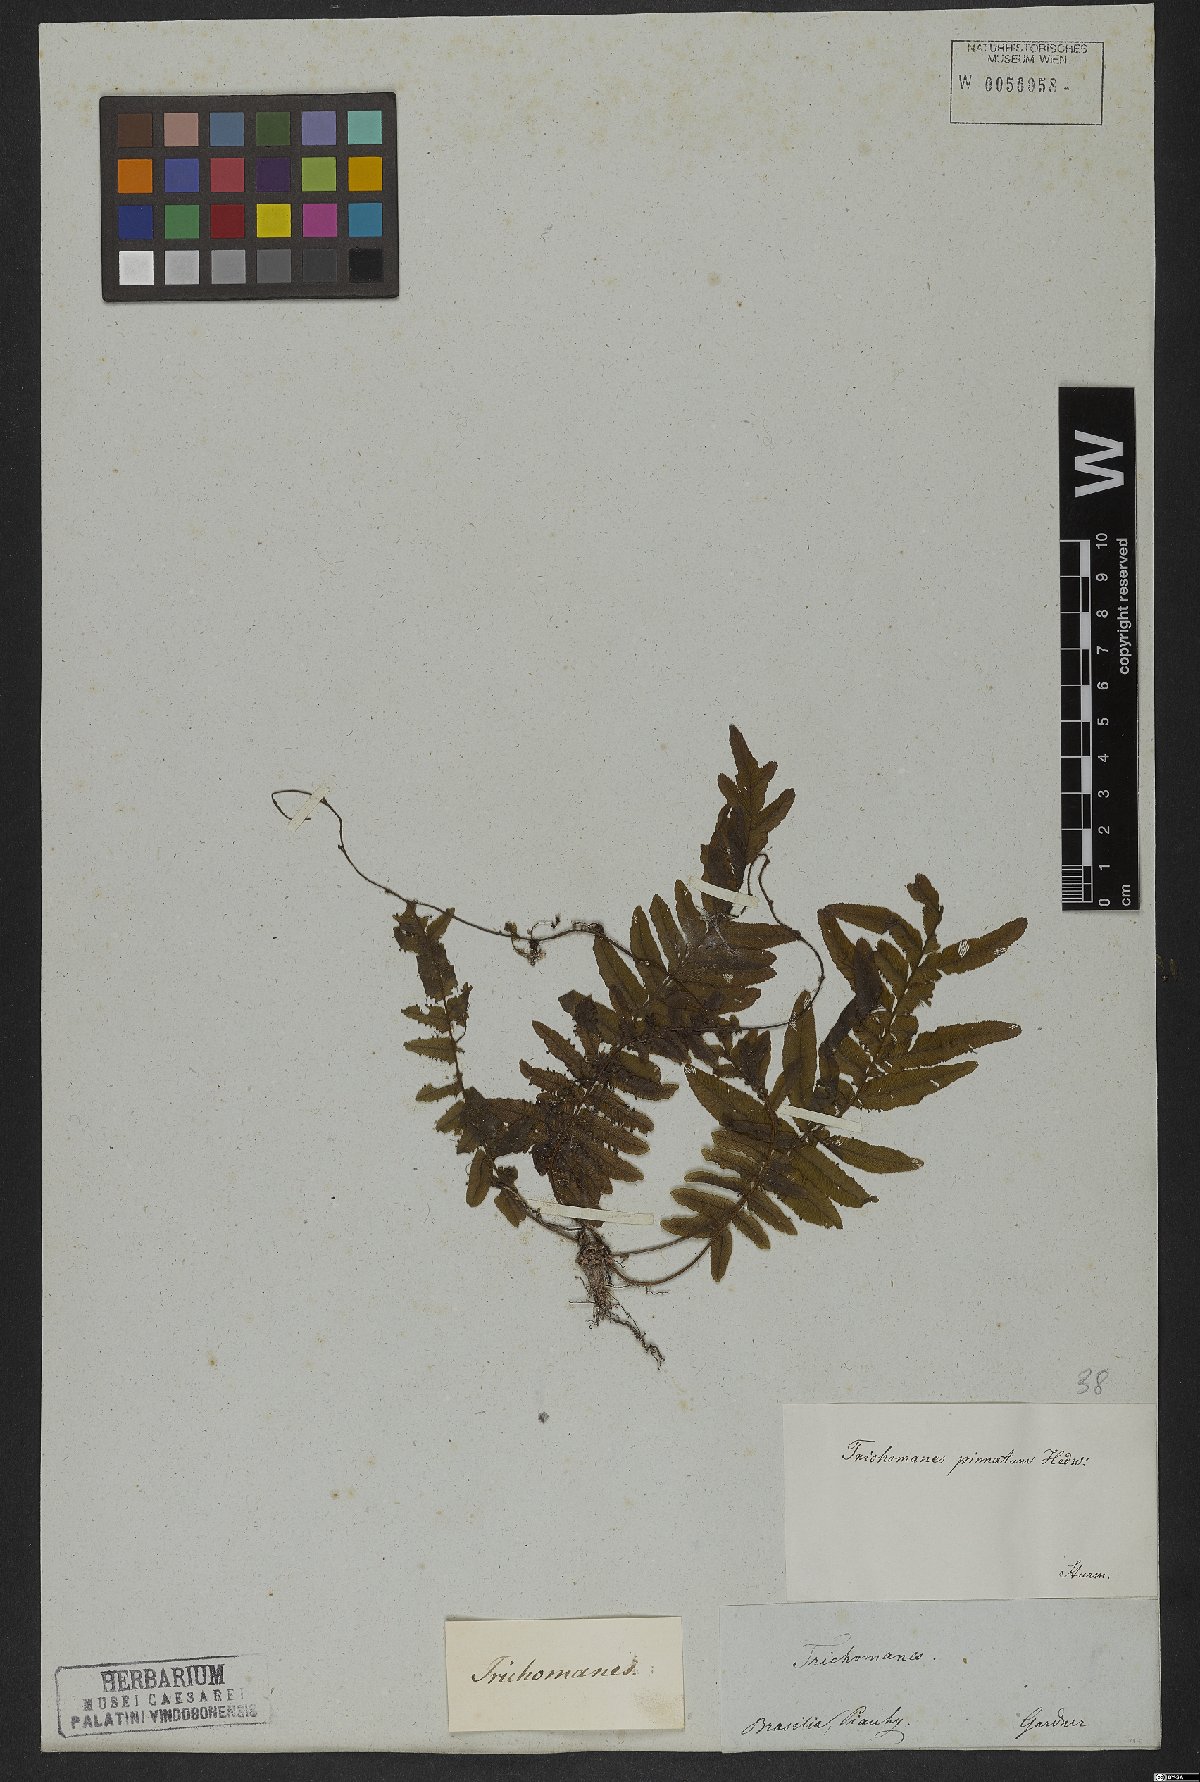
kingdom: Plantae
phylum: Tracheophyta
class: Polypodiopsida
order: Hymenophyllales
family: Hymenophyllaceae
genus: Trichomanes
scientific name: Trichomanes pinnatum
